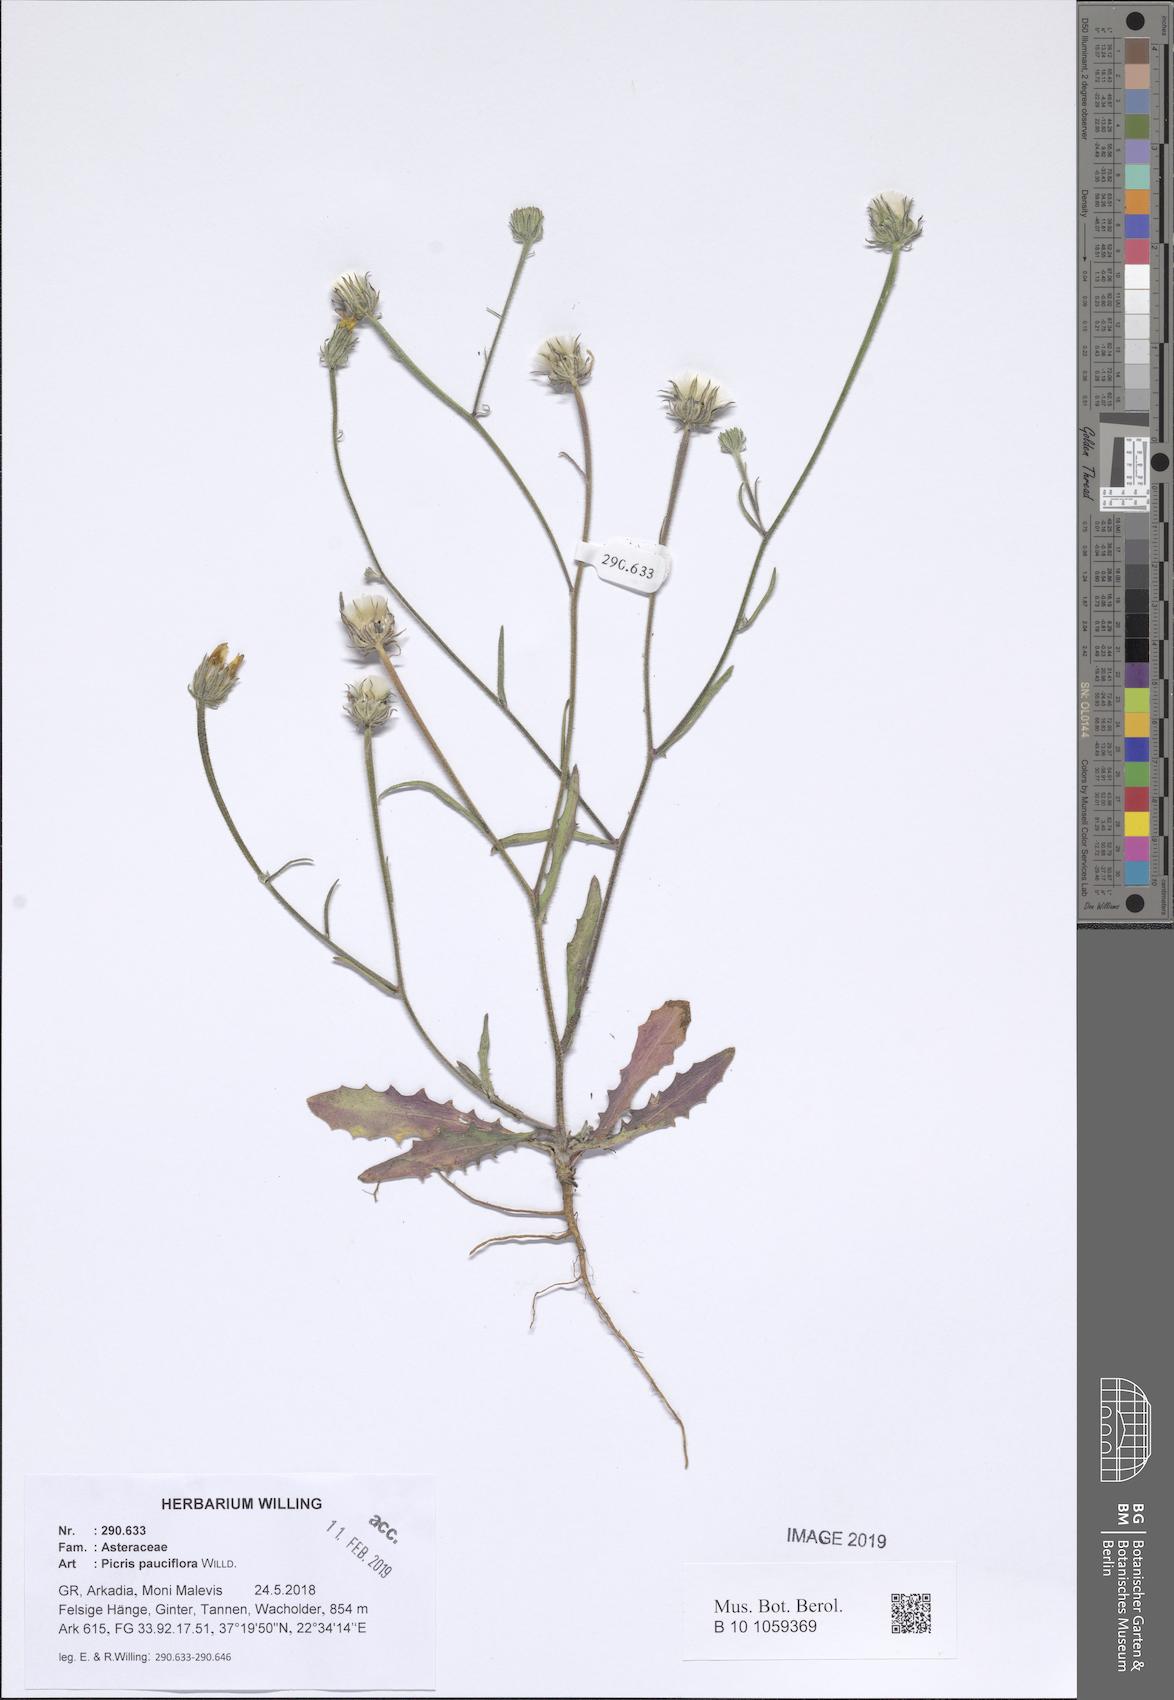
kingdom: Plantae
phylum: Tracheophyta
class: Magnoliopsida
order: Asterales
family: Asteraceae
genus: Picris
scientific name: Picris pauciflora
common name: Smallflower oxtongue
